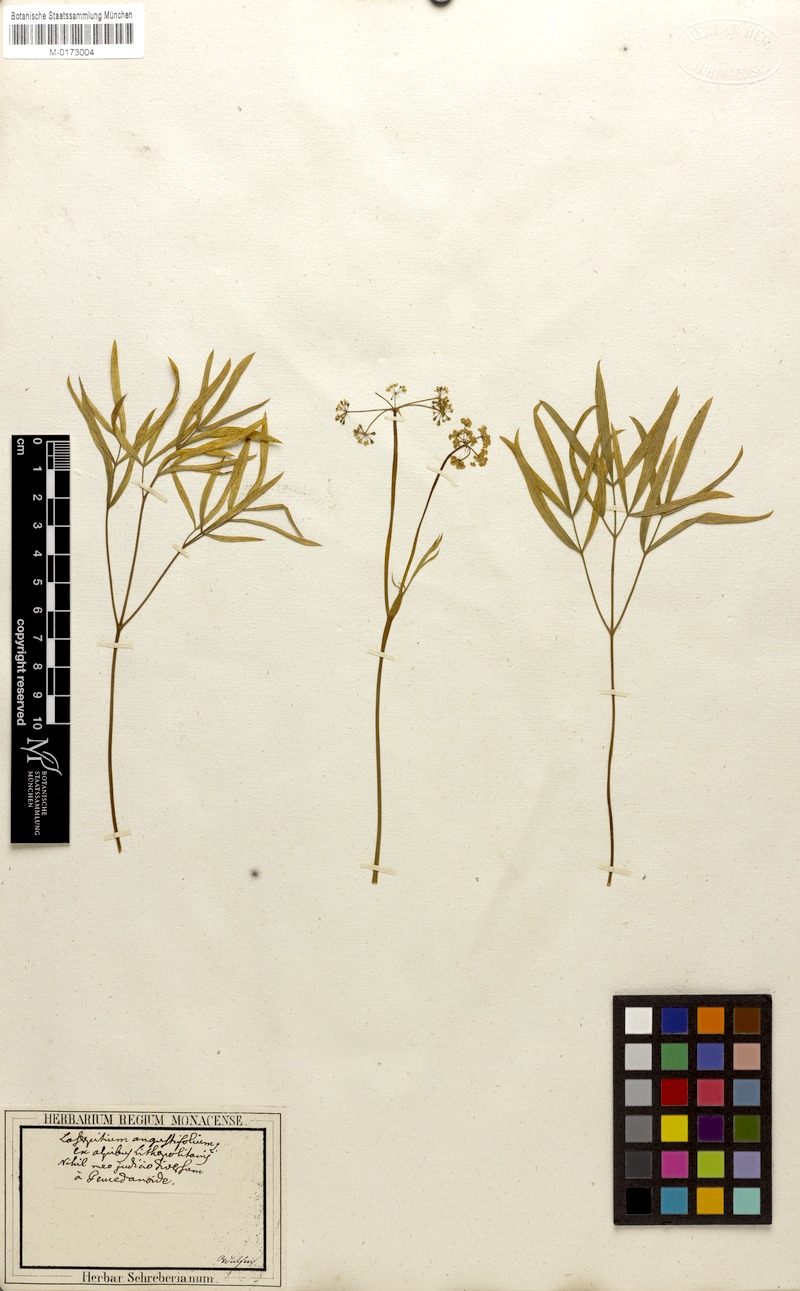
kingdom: Plantae
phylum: Tracheophyta
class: Magnoliopsida
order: Apiales
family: Apiaceae
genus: Laserpitium
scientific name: Laserpitium peucedanoides
